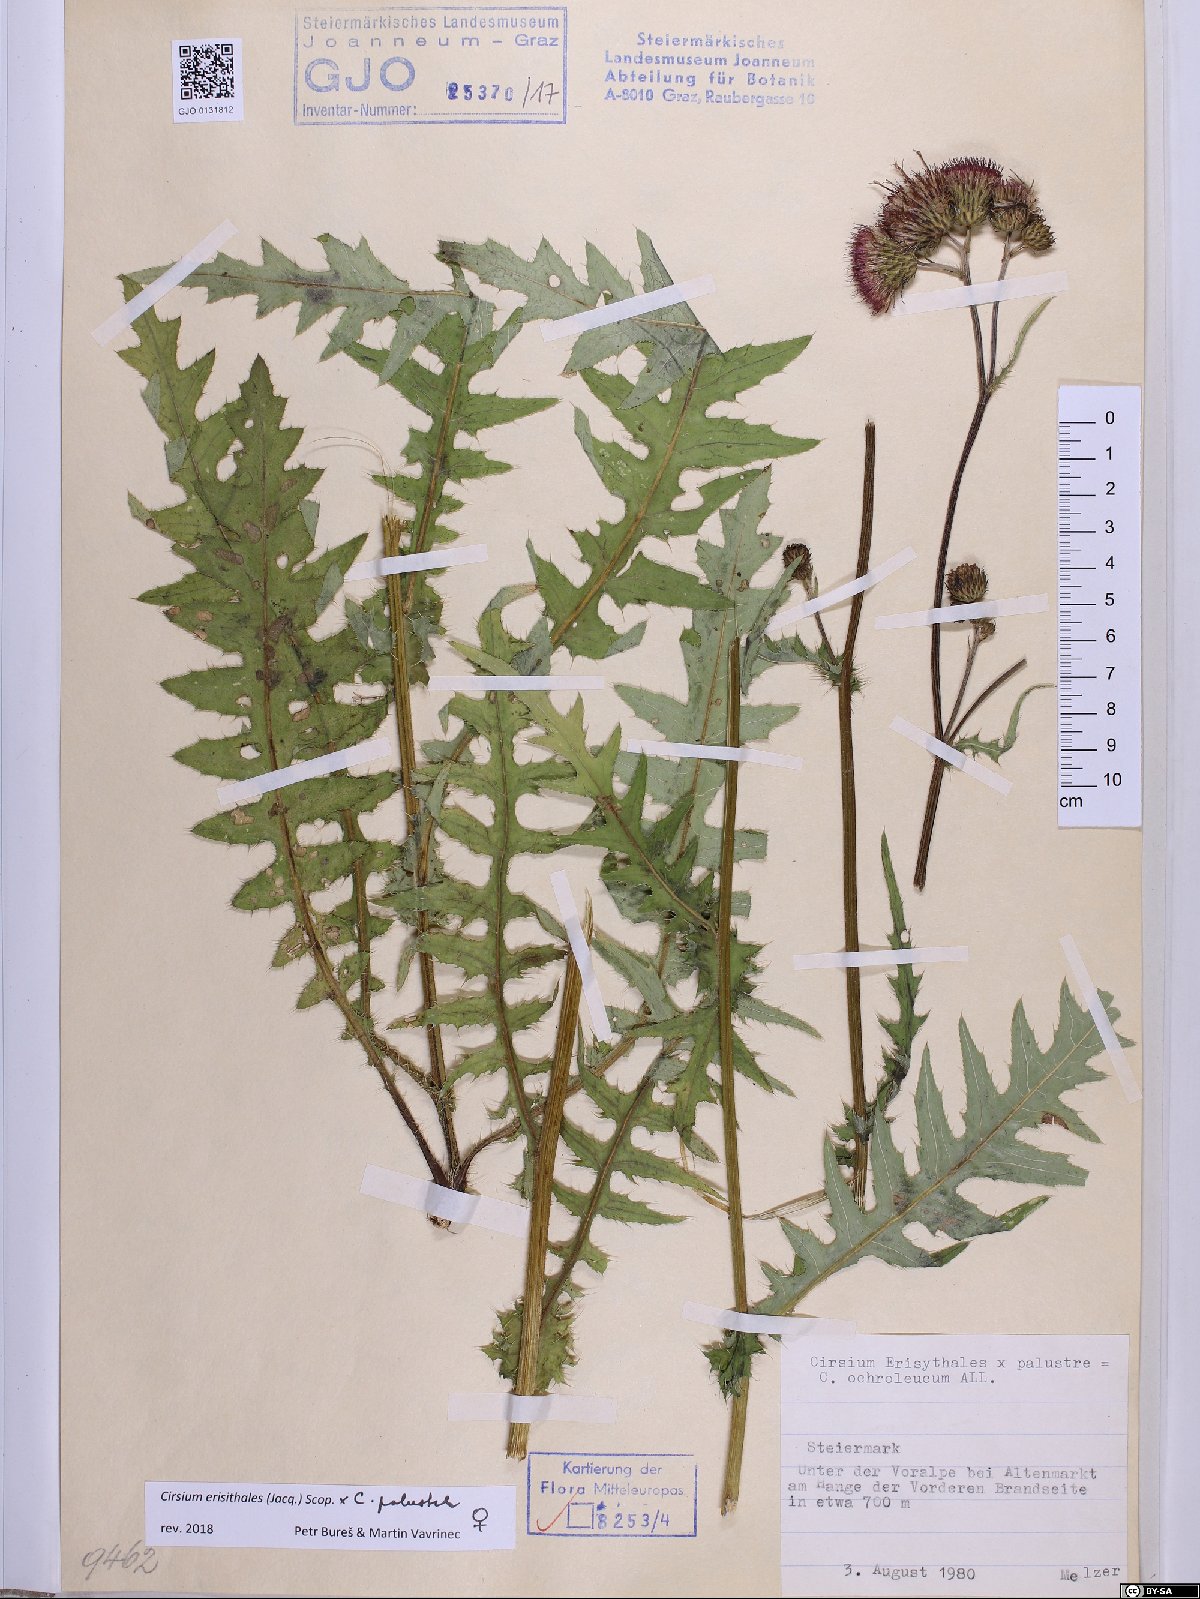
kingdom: Plantae
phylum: Tracheophyta
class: Magnoliopsida
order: Asterales
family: Asteraceae
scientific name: Asteraceae
